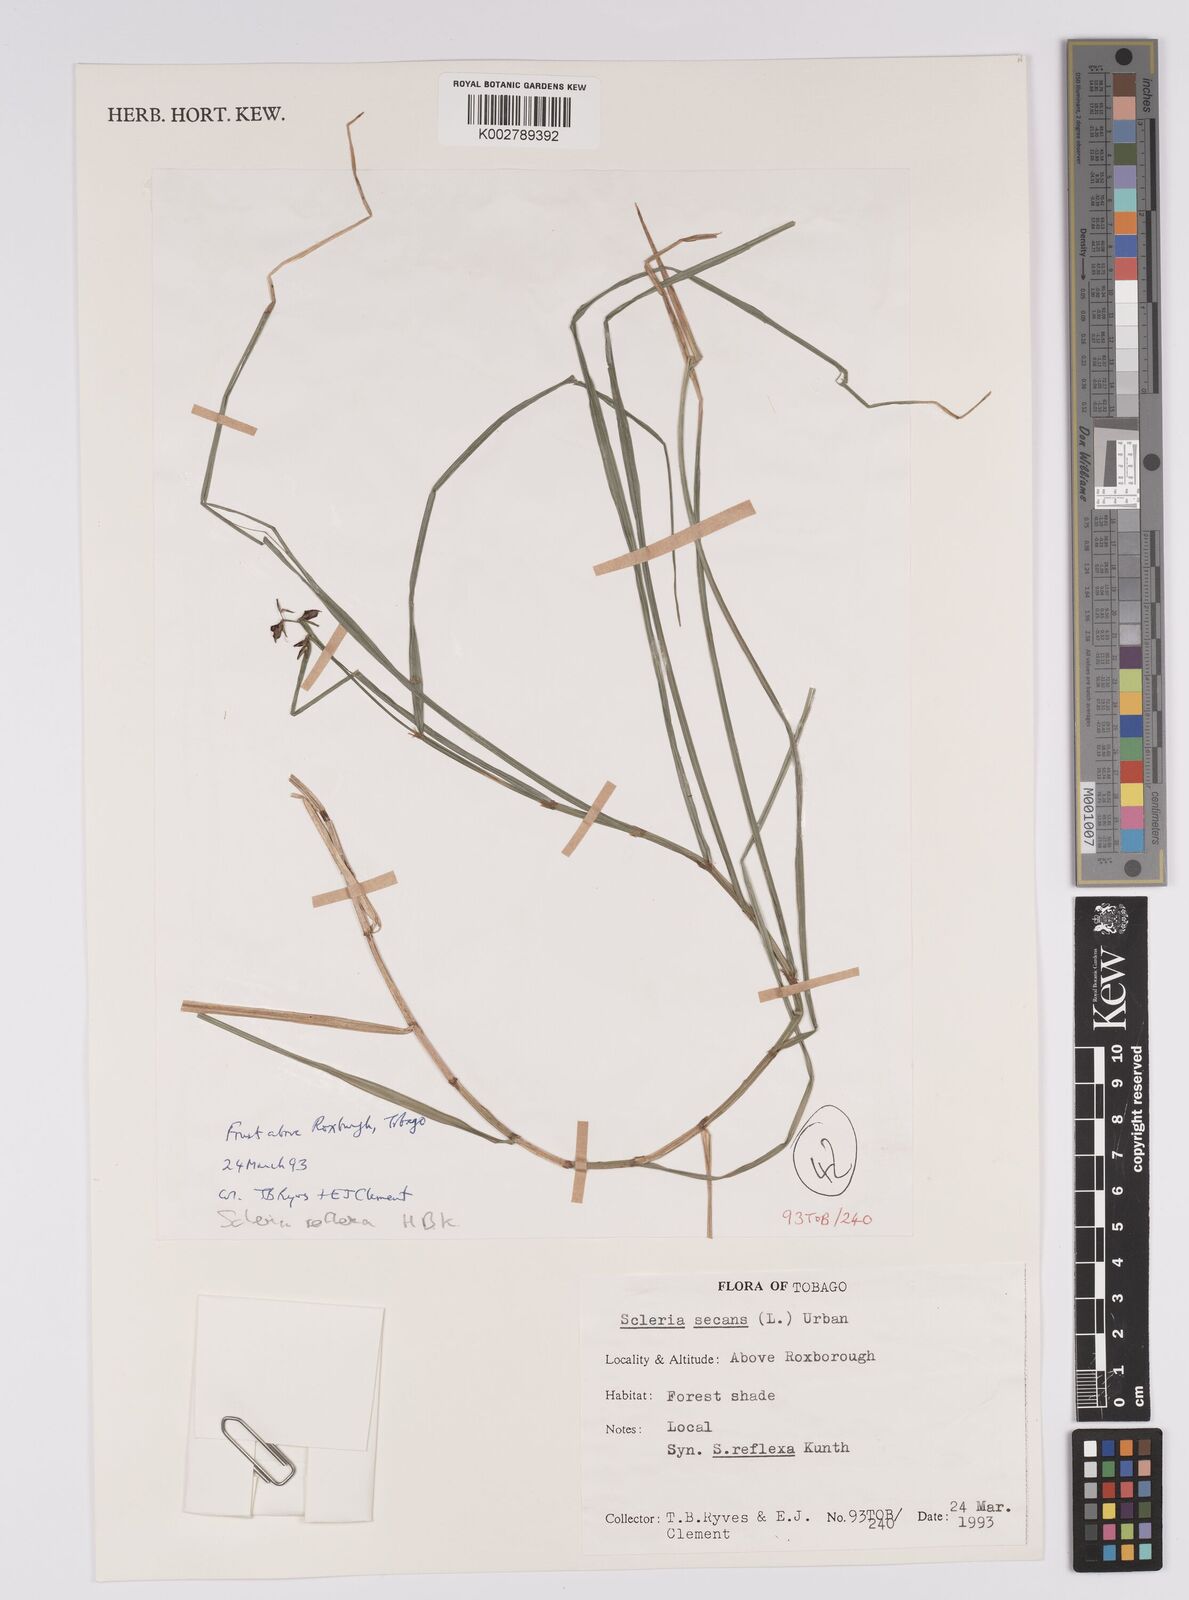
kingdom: Plantae
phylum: Tracheophyta
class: Liliopsida
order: Poales
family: Cyperaceae
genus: Scleria
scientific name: Scleria secans
